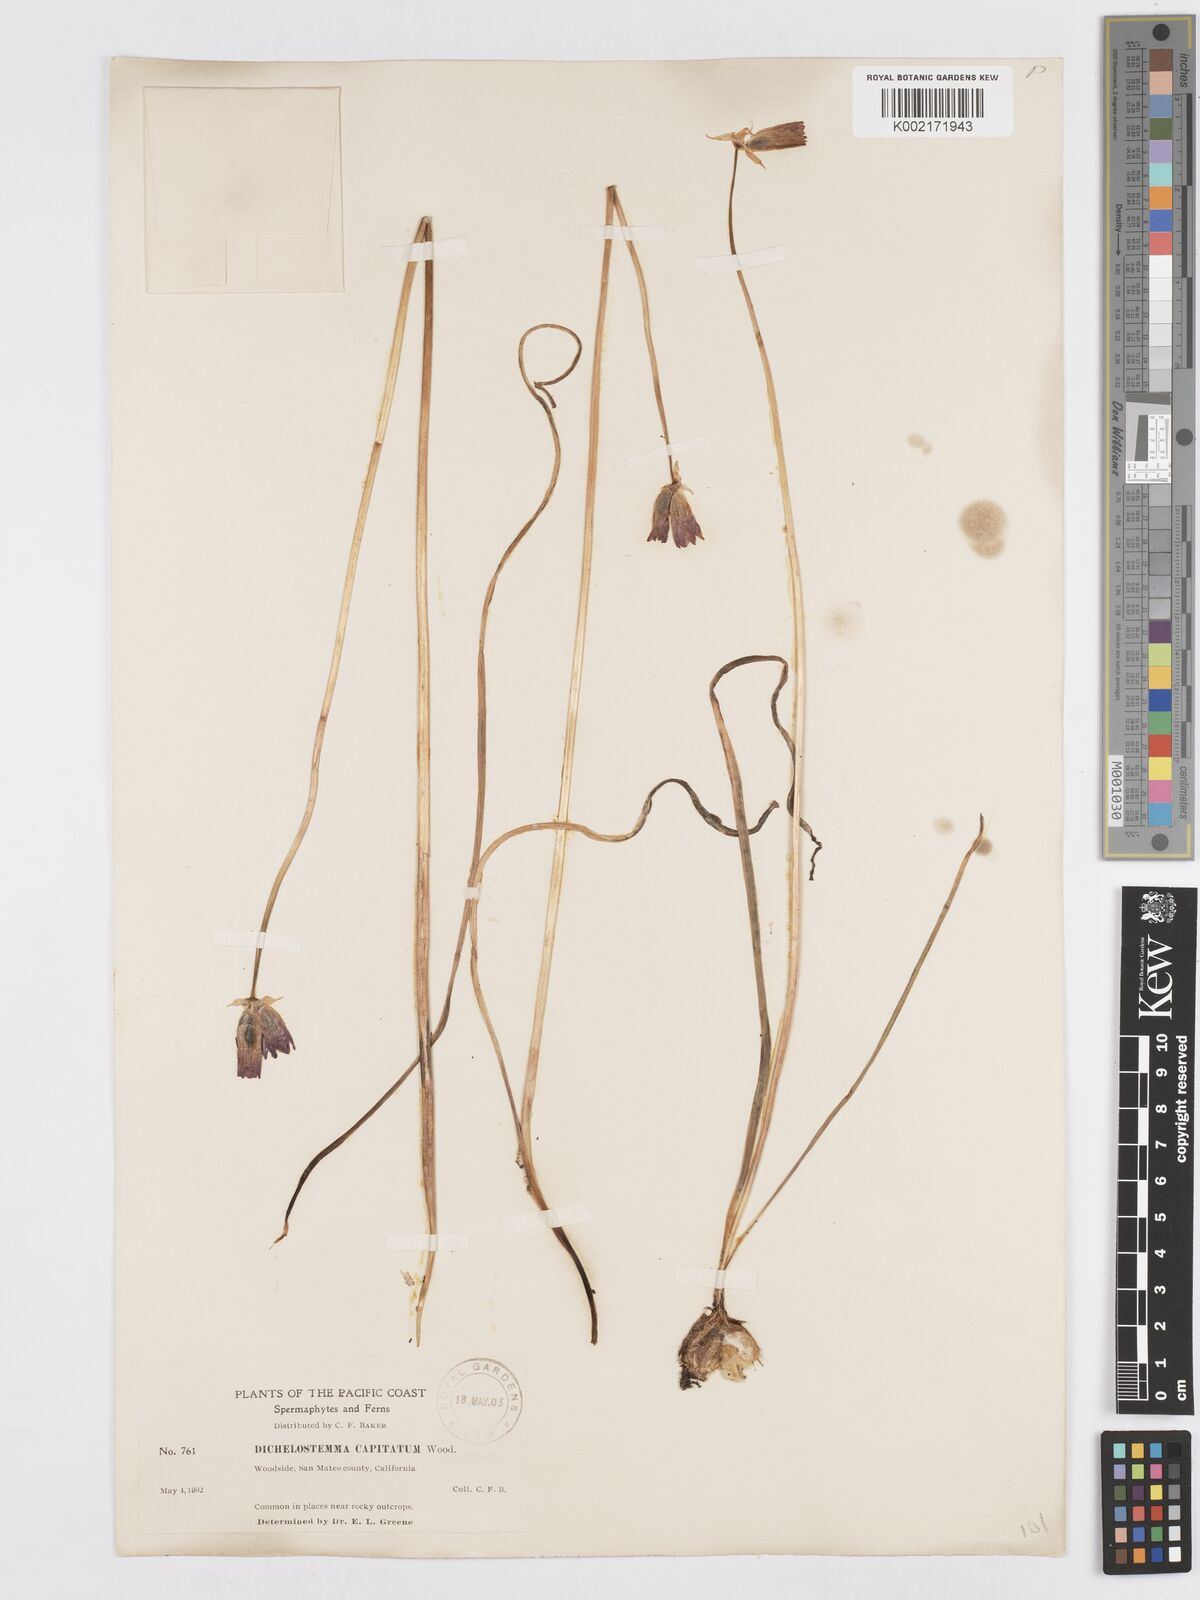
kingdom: Plantae
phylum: Tracheophyta
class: Liliopsida
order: Asparagales
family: Asparagaceae
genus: Dichelostemma
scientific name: Dichelostemma congestum
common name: Fork-tooth ookow
